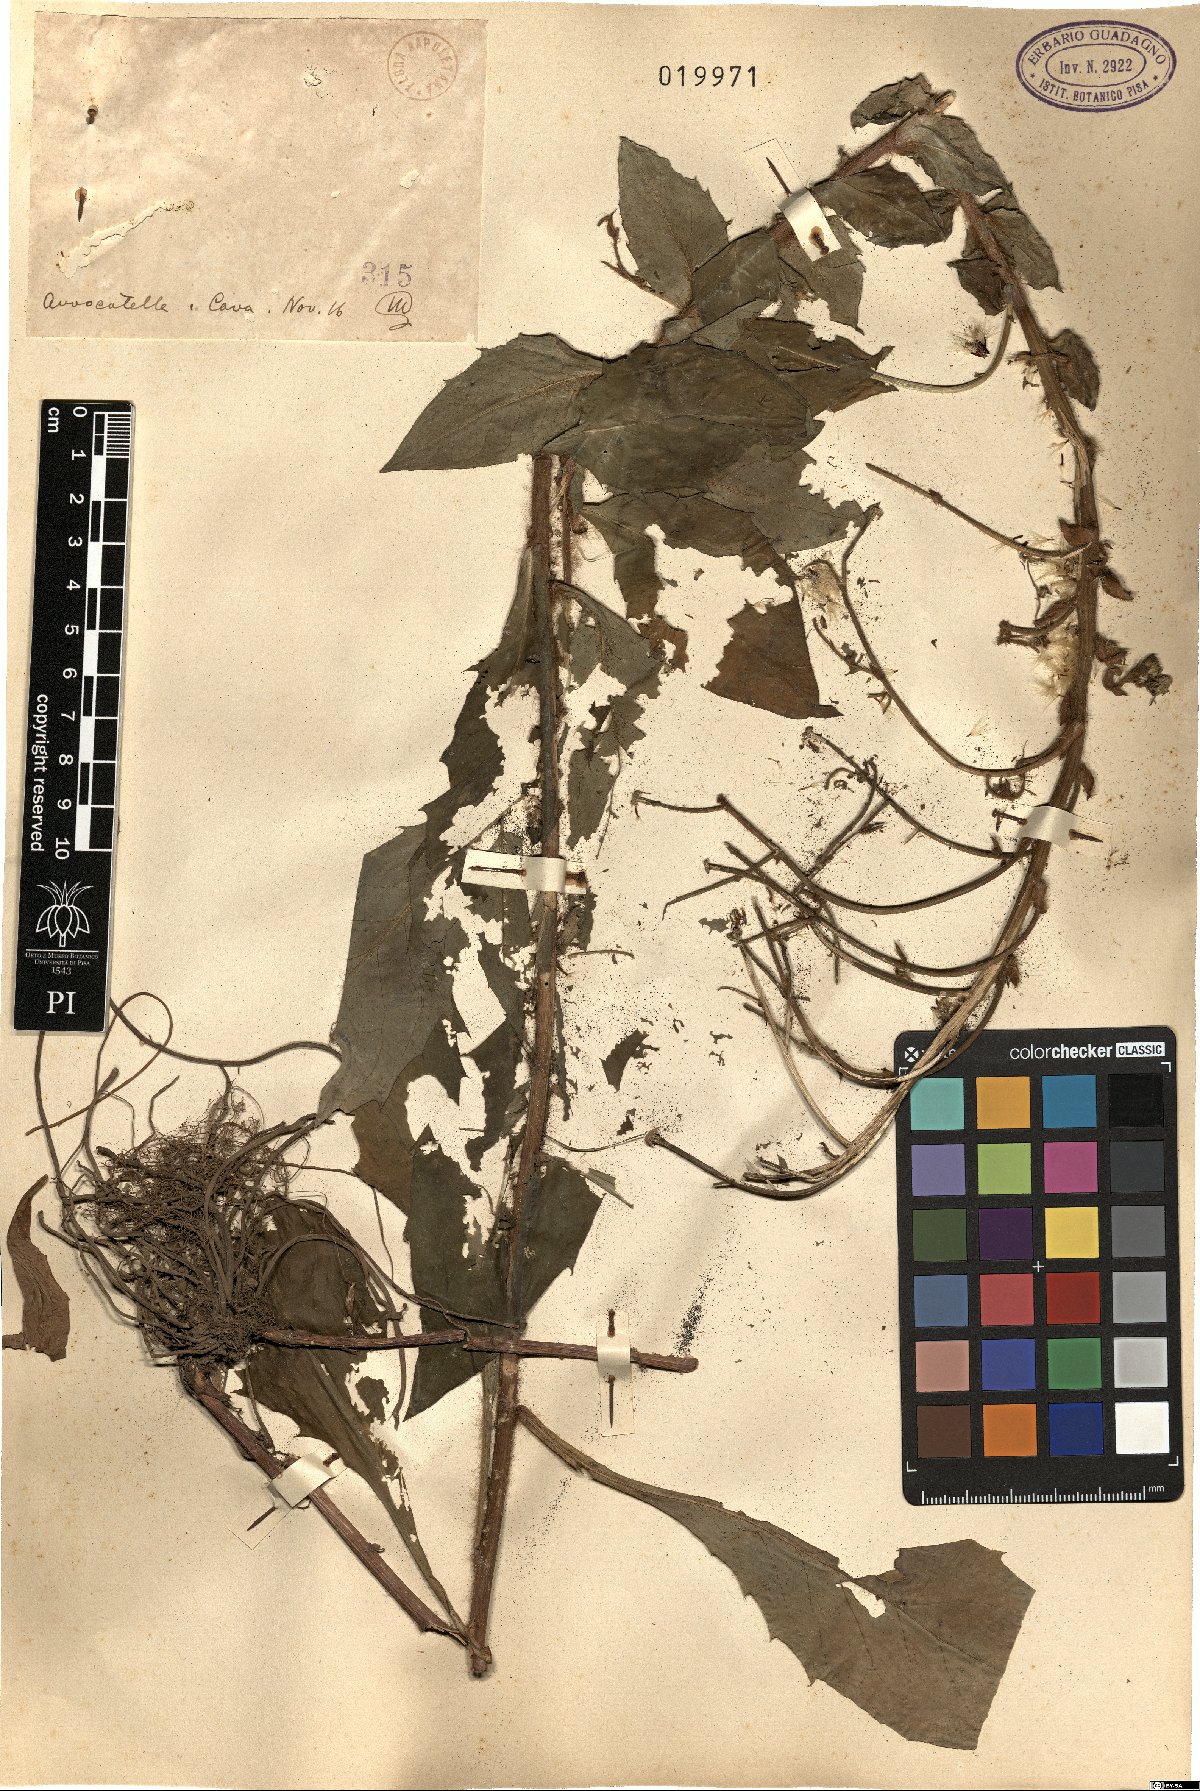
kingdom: Plantae
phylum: Tracheophyta
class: Magnoliopsida
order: Asterales
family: Asteraceae
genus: Hieracium
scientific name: Hieracium
